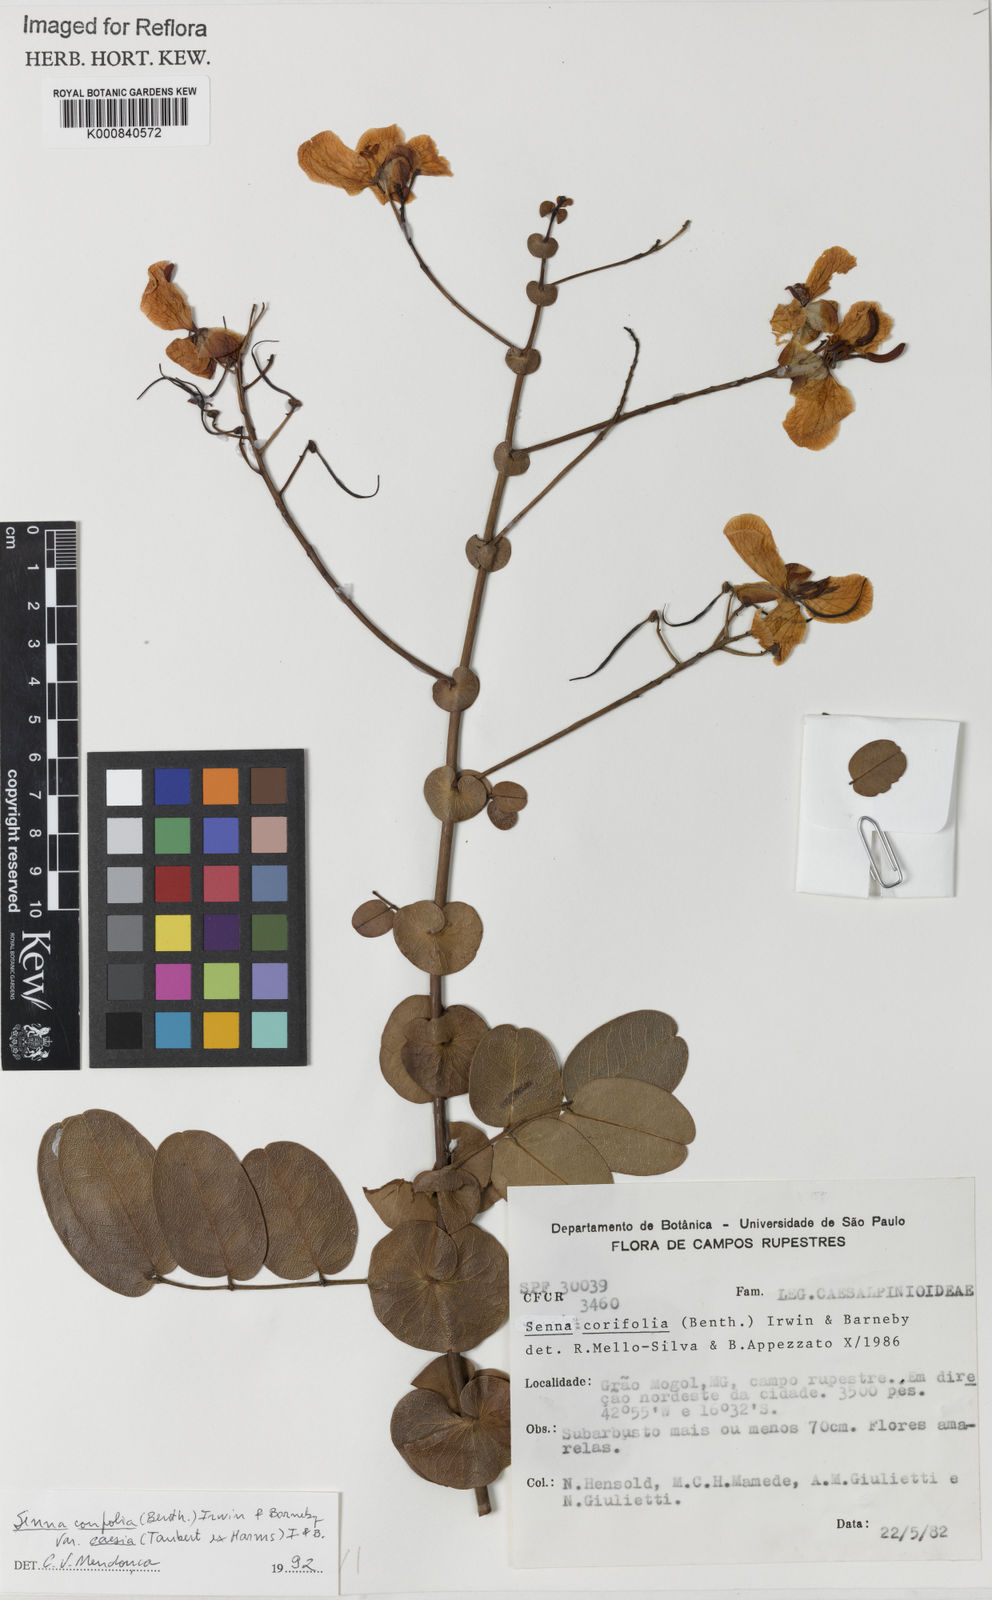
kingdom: Plantae
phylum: Tracheophyta
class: Magnoliopsida
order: Fabales
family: Fabaceae
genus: Senna
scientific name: Senna corifolia
